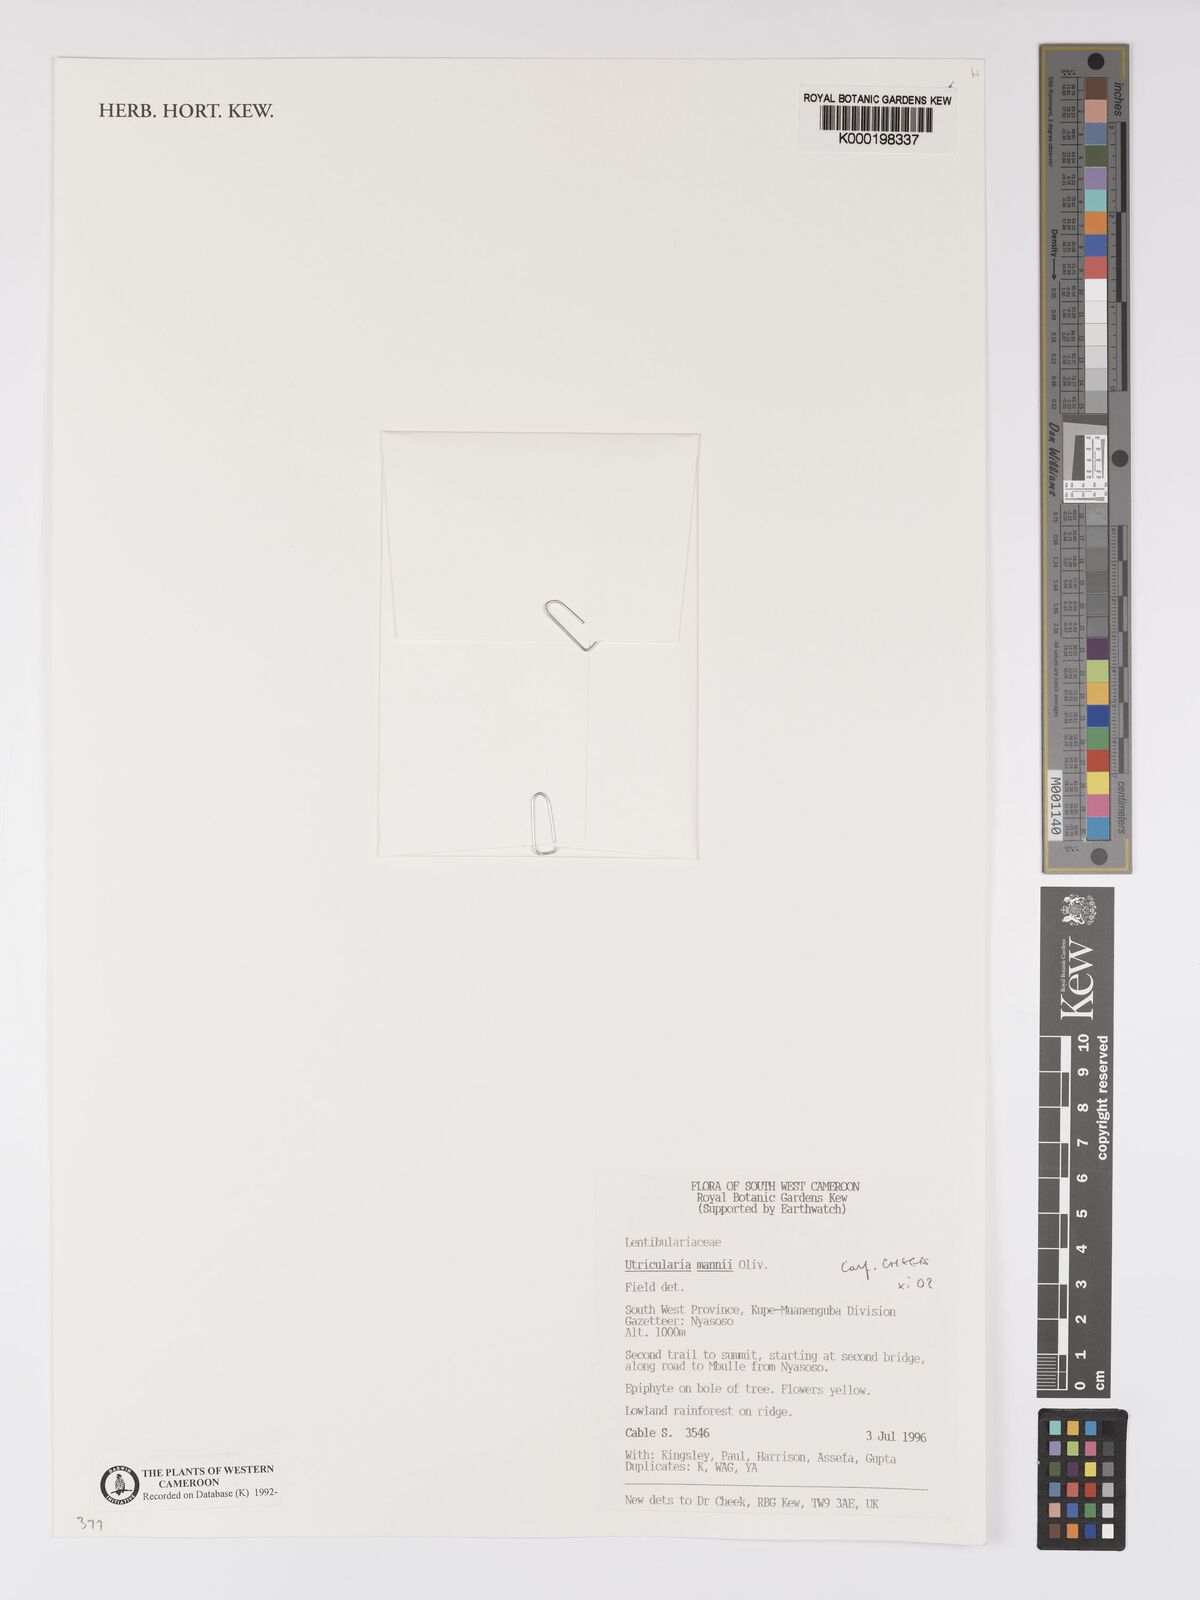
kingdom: Plantae
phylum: Tracheophyta
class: Magnoliopsida
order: Lamiales
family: Lentibulariaceae
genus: Utricularia
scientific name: Utricularia mannii
